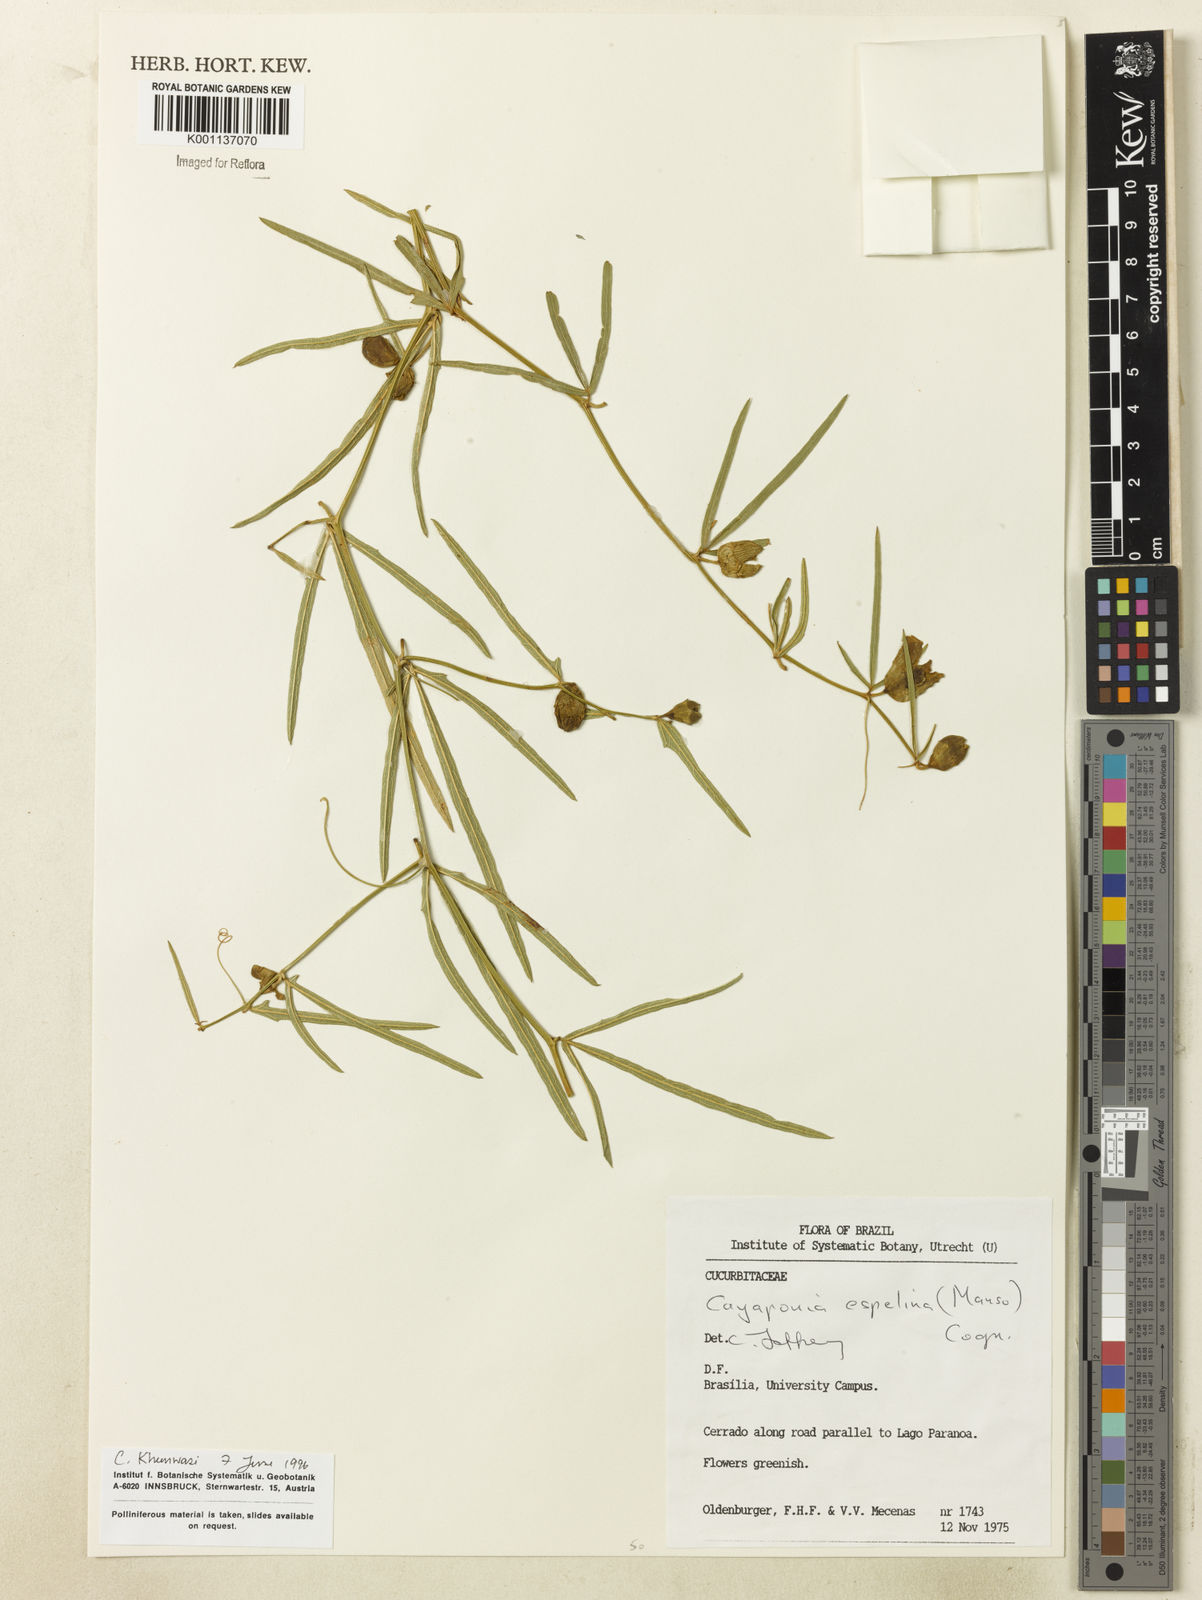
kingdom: Plantae
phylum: Tracheophyta
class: Magnoliopsida
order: Cucurbitales
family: Cucurbitaceae
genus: Cayaponia
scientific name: Cayaponia espelina
